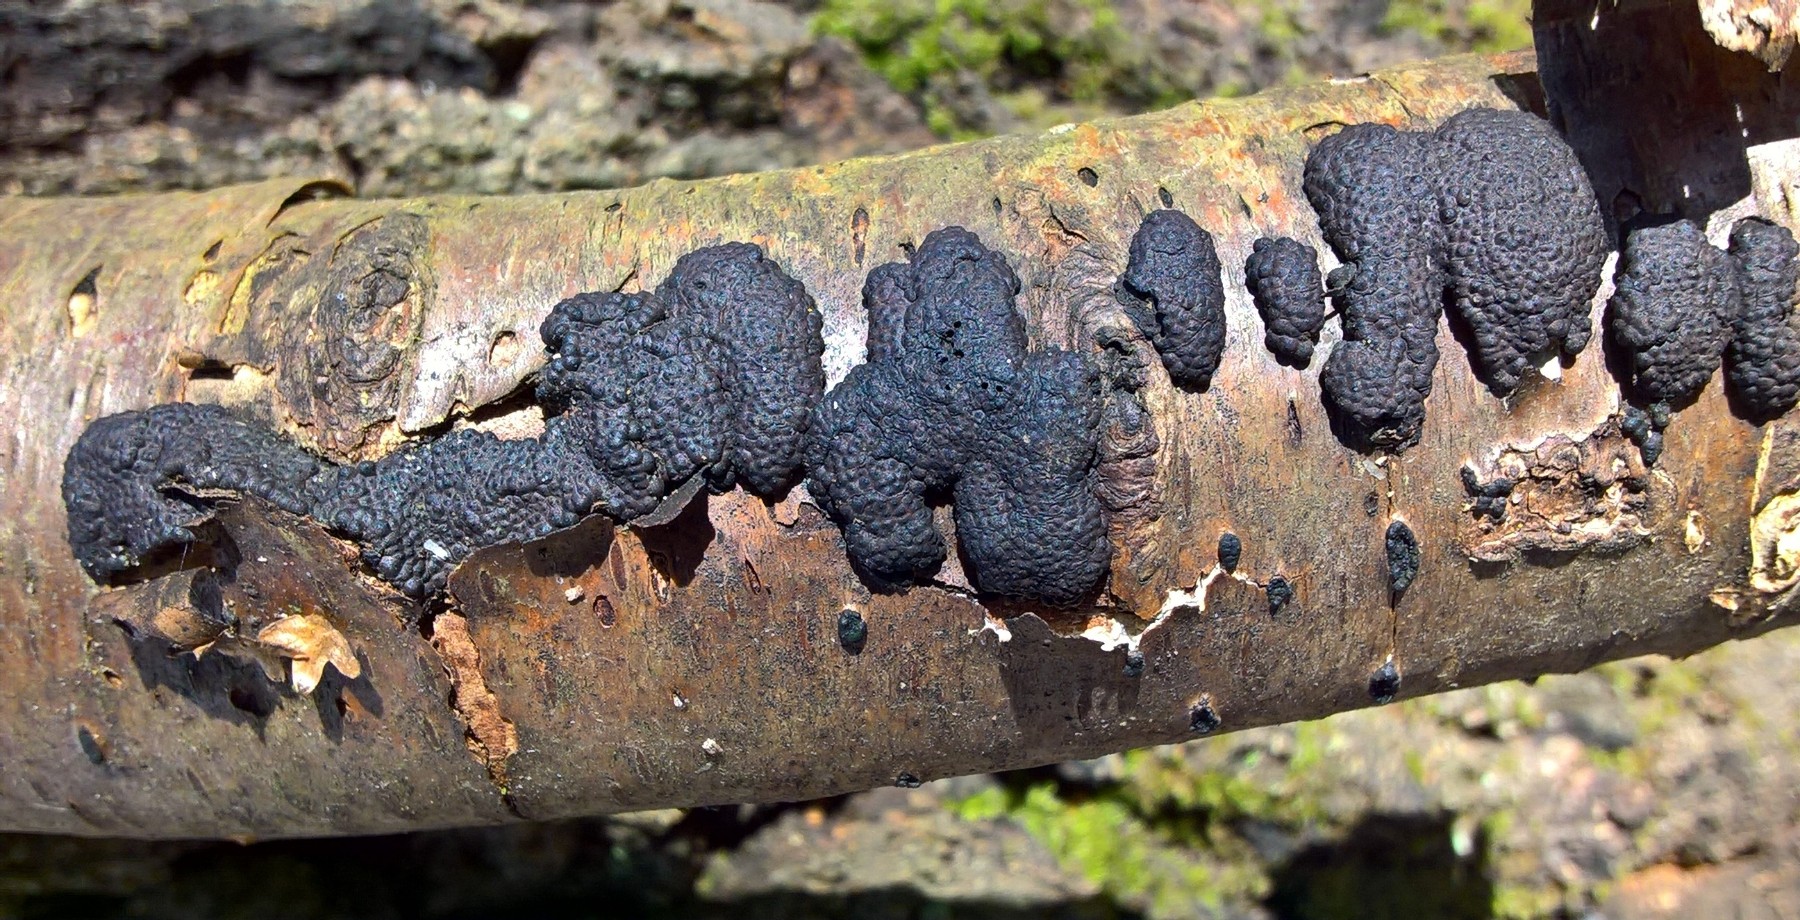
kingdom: Fungi
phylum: Ascomycota
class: Sordariomycetes
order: Xylariales
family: Hypoxylaceae
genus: Jackrogersella
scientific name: Jackrogersella multiformis
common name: foranderlig kulbær
